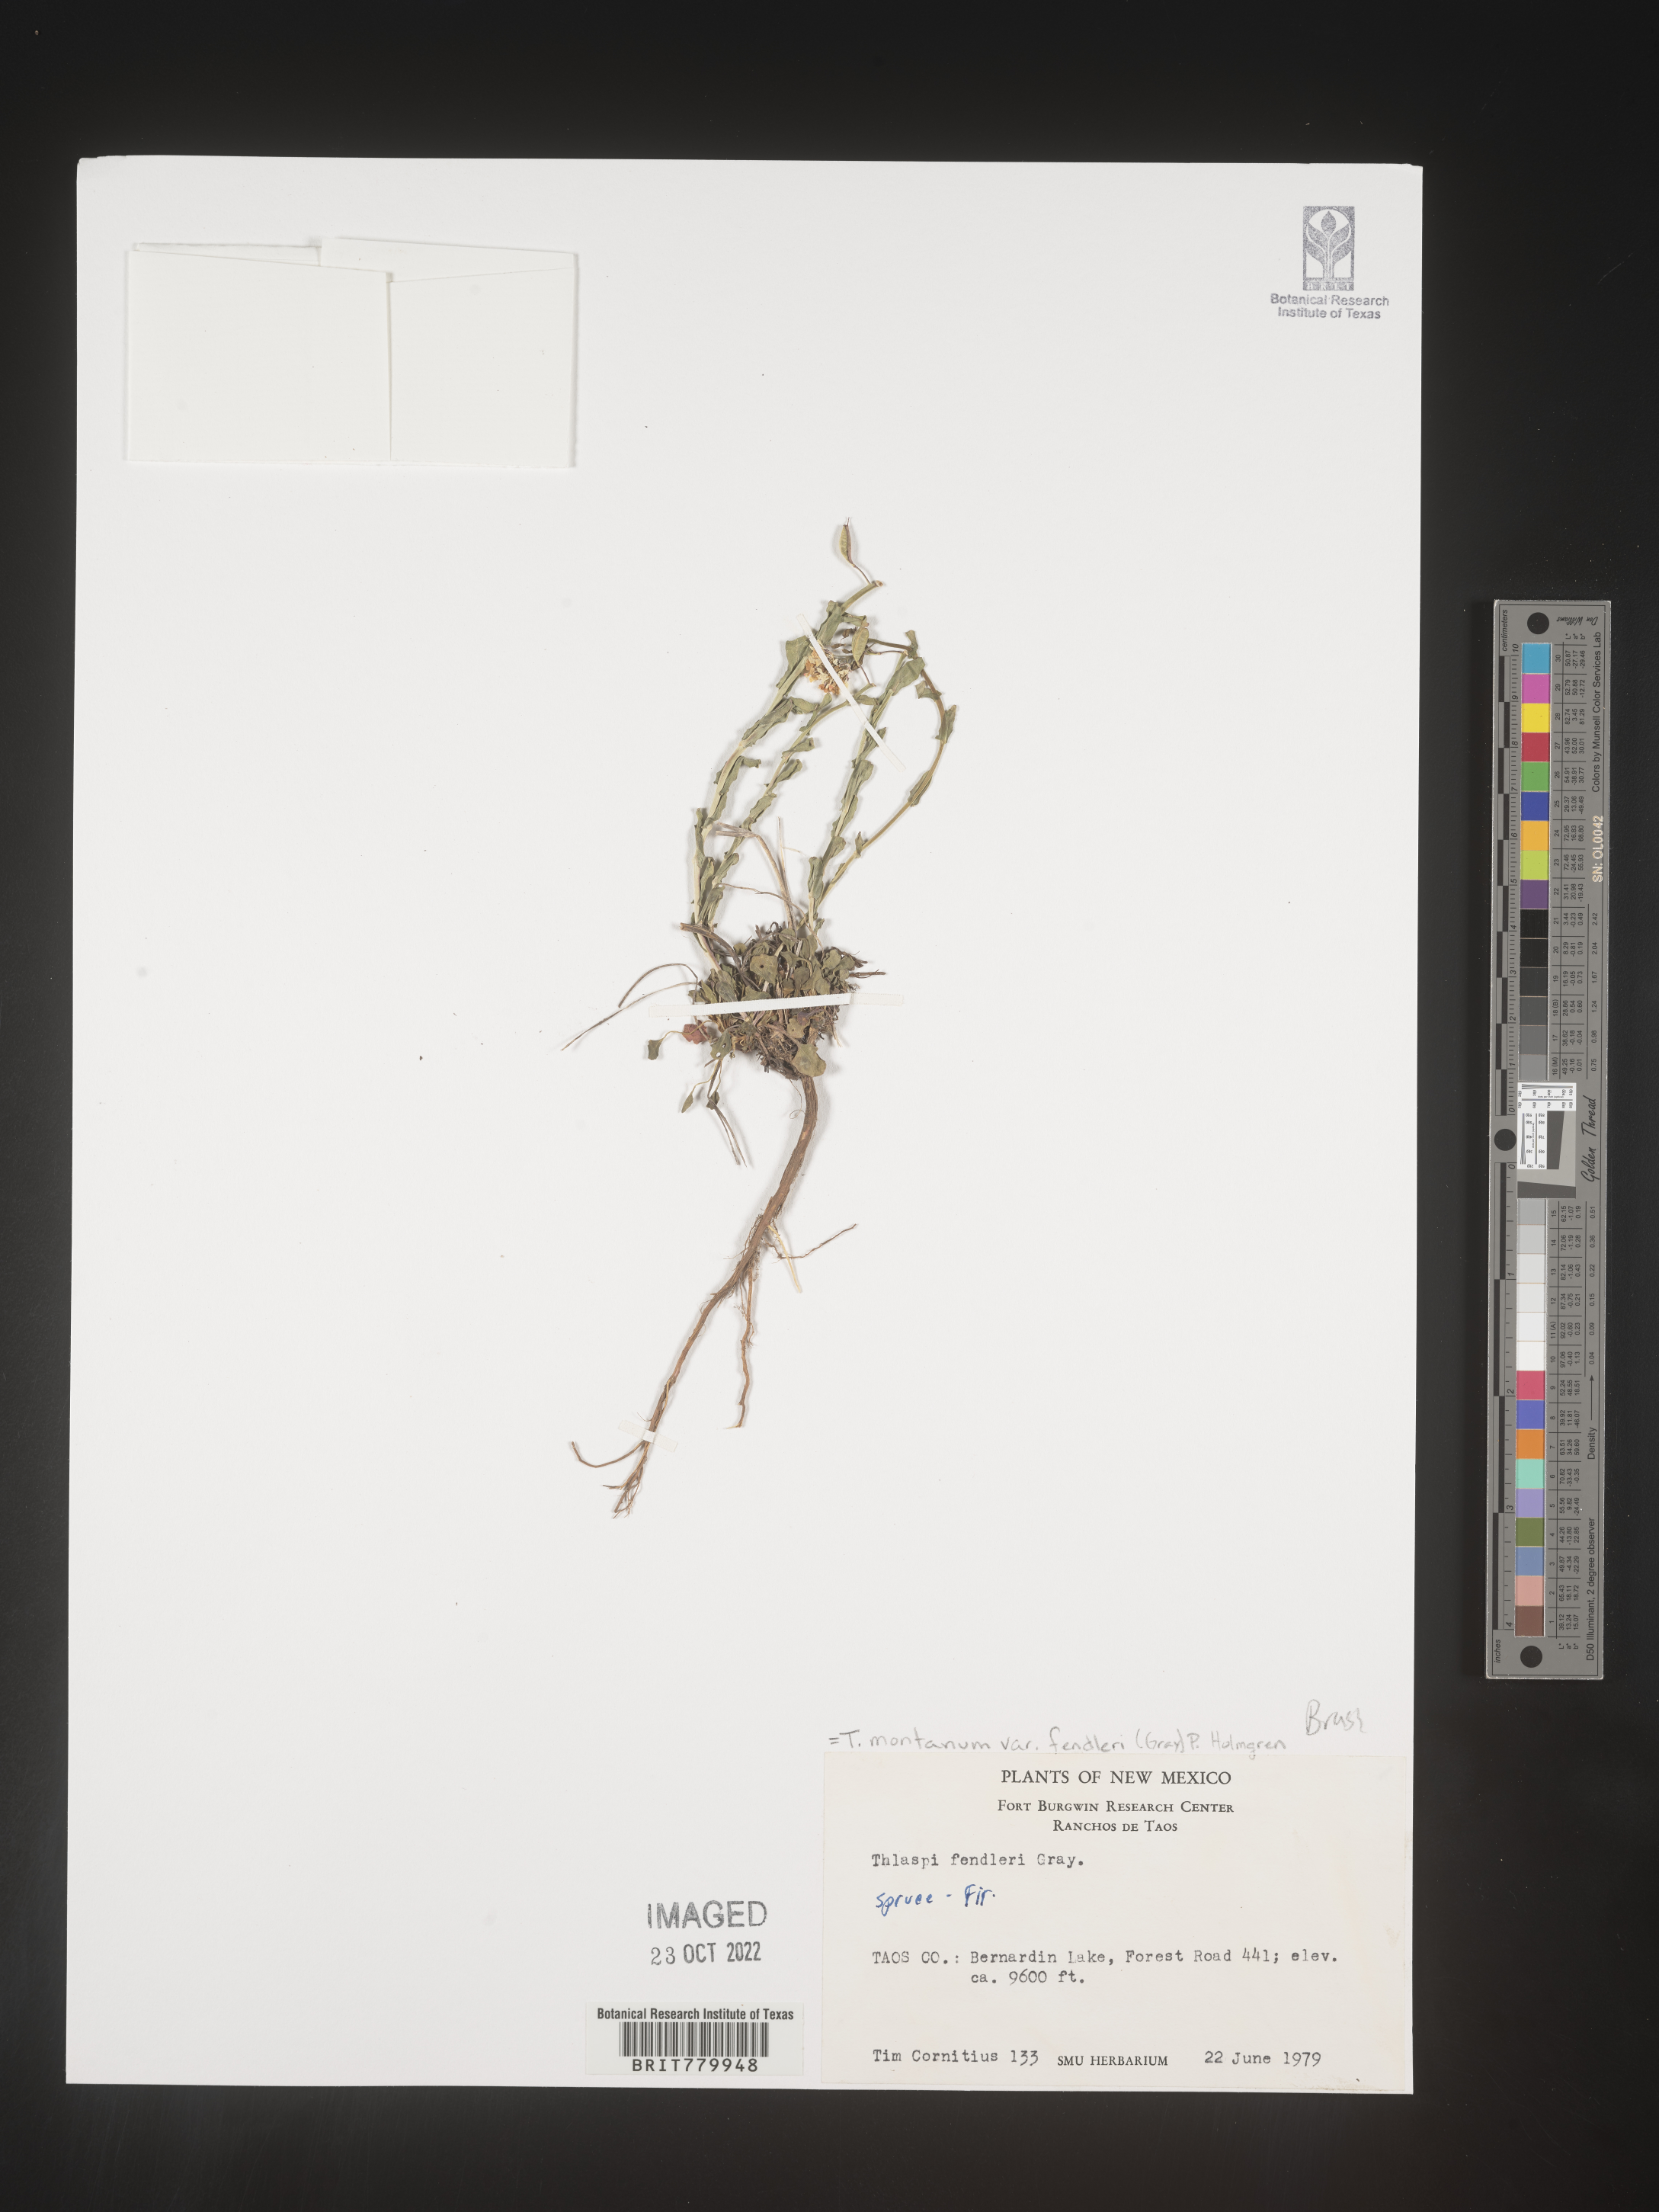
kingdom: Plantae
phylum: Tracheophyta
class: Magnoliopsida
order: Brassicales
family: Brassicaceae
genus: Thlaspi
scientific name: Thlaspi
